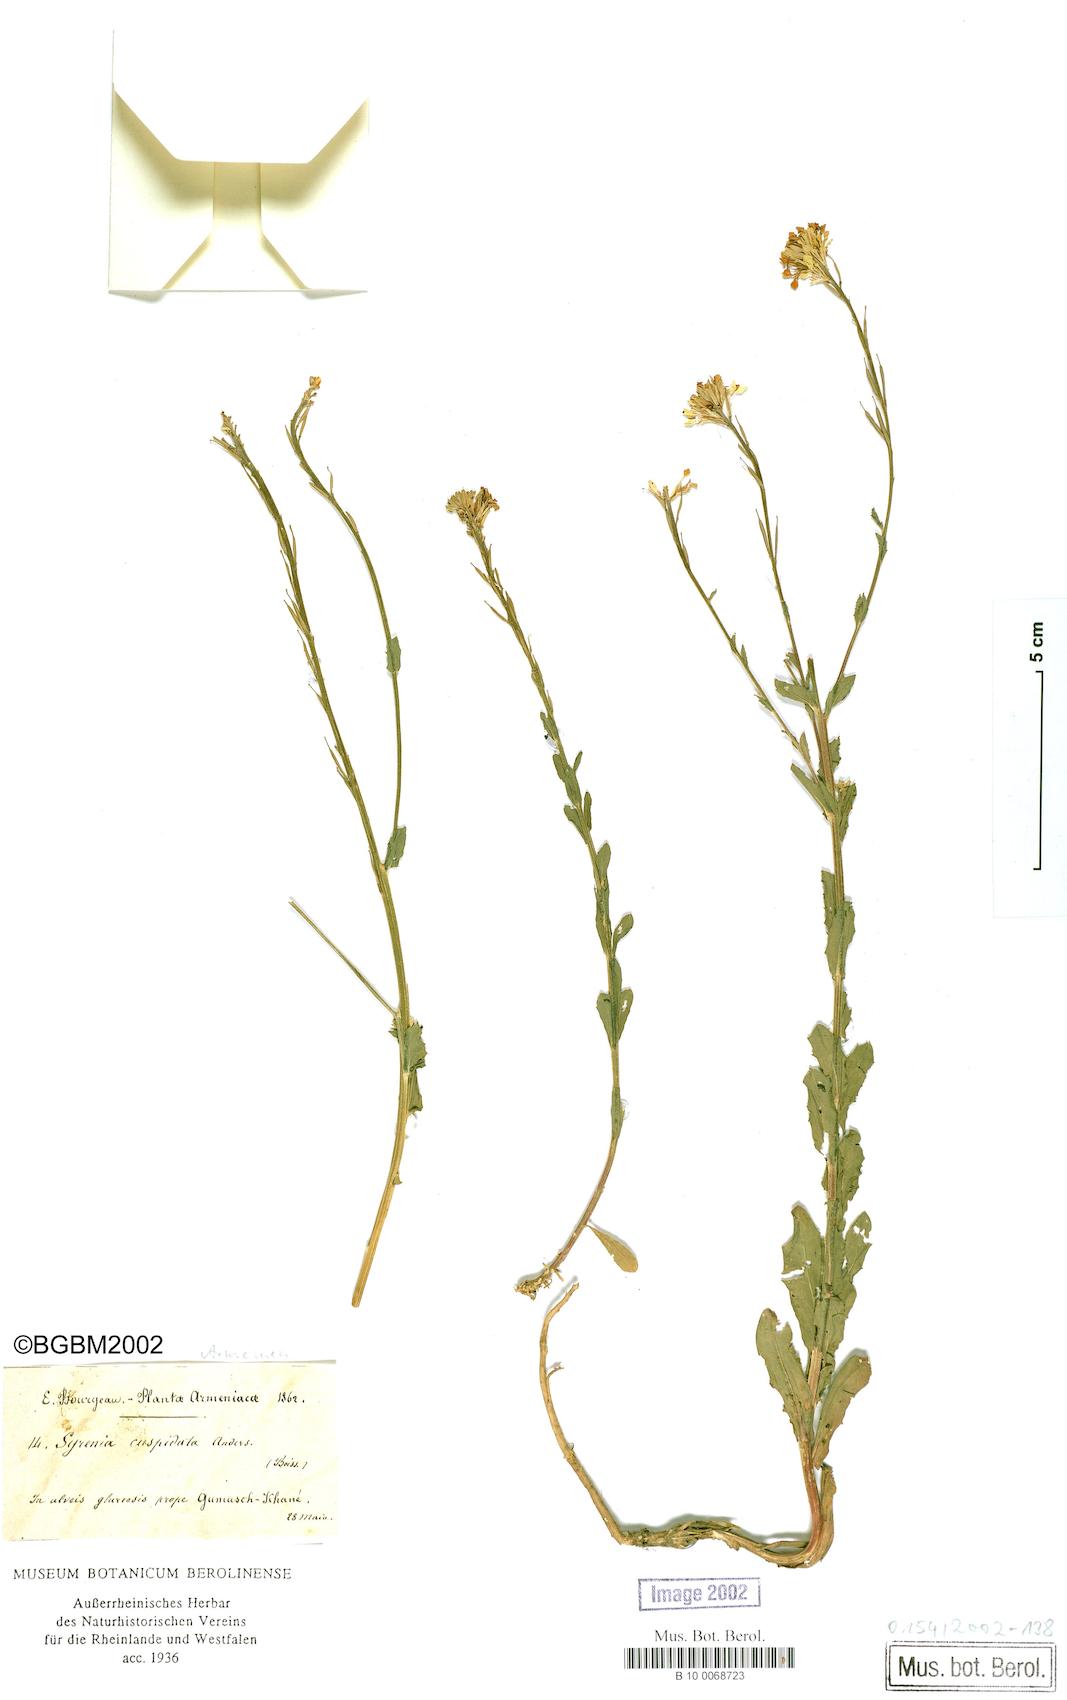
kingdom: Plantae
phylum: Tracheophyta
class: Magnoliopsida
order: Brassicales
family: Brassicaceae
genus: Erysimum
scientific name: Erysimum cuspidatum
